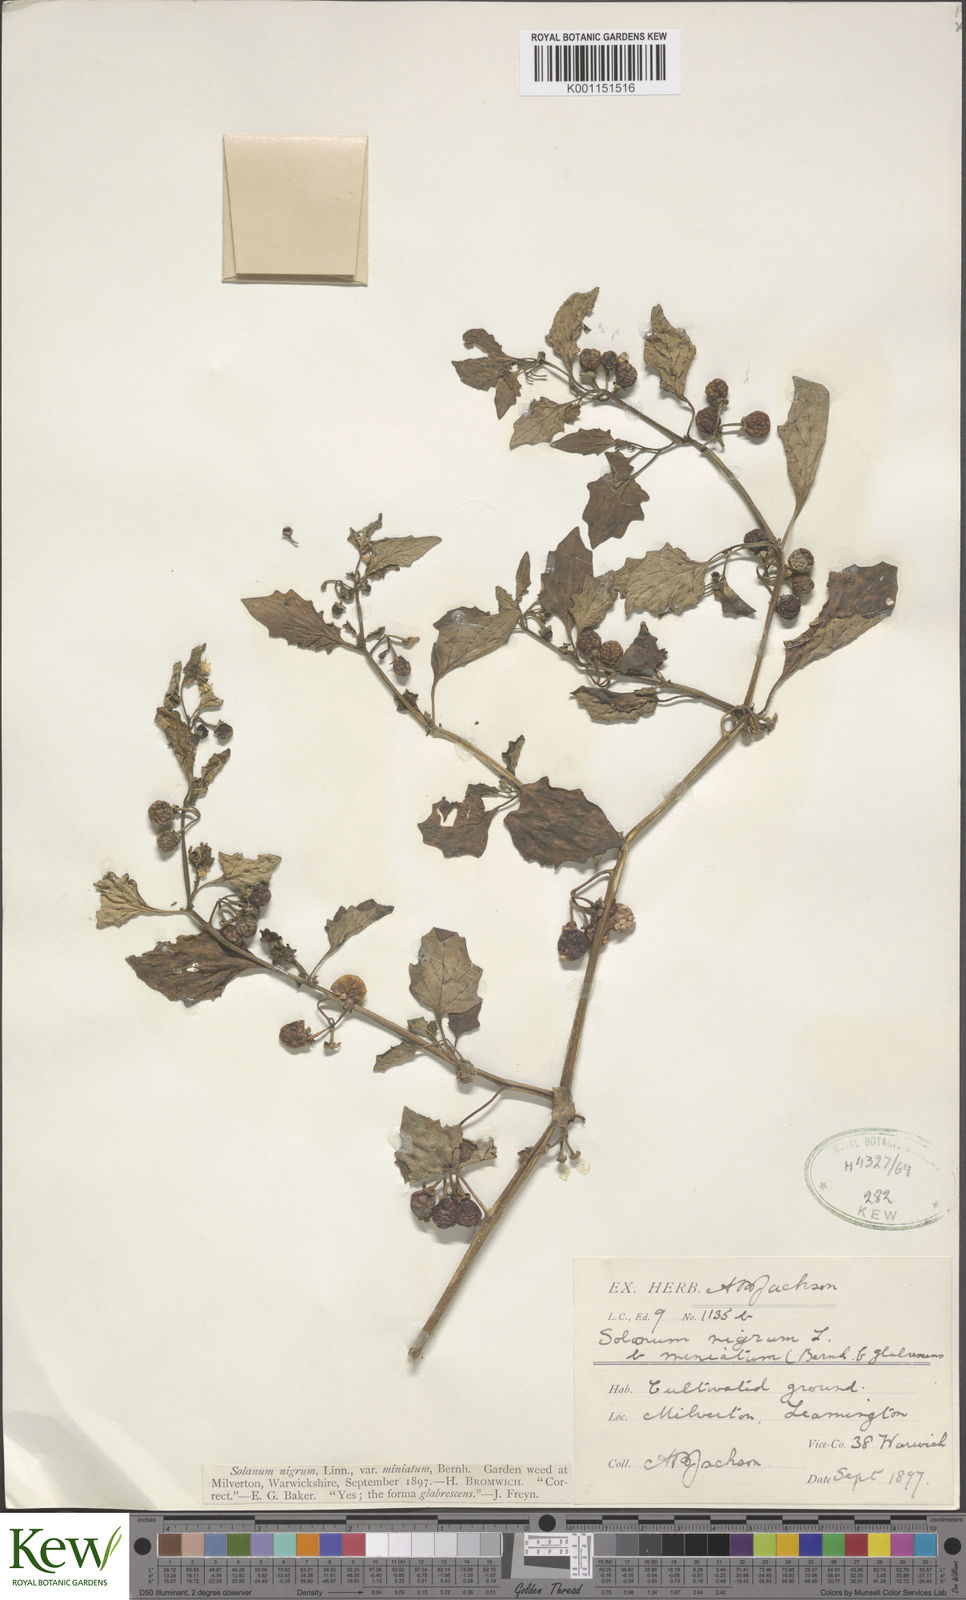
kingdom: Plantae
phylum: Tracheophyta
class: Magnoliopsida
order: Solanales
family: Solanaceae
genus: Solanum
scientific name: Solanum alatum
